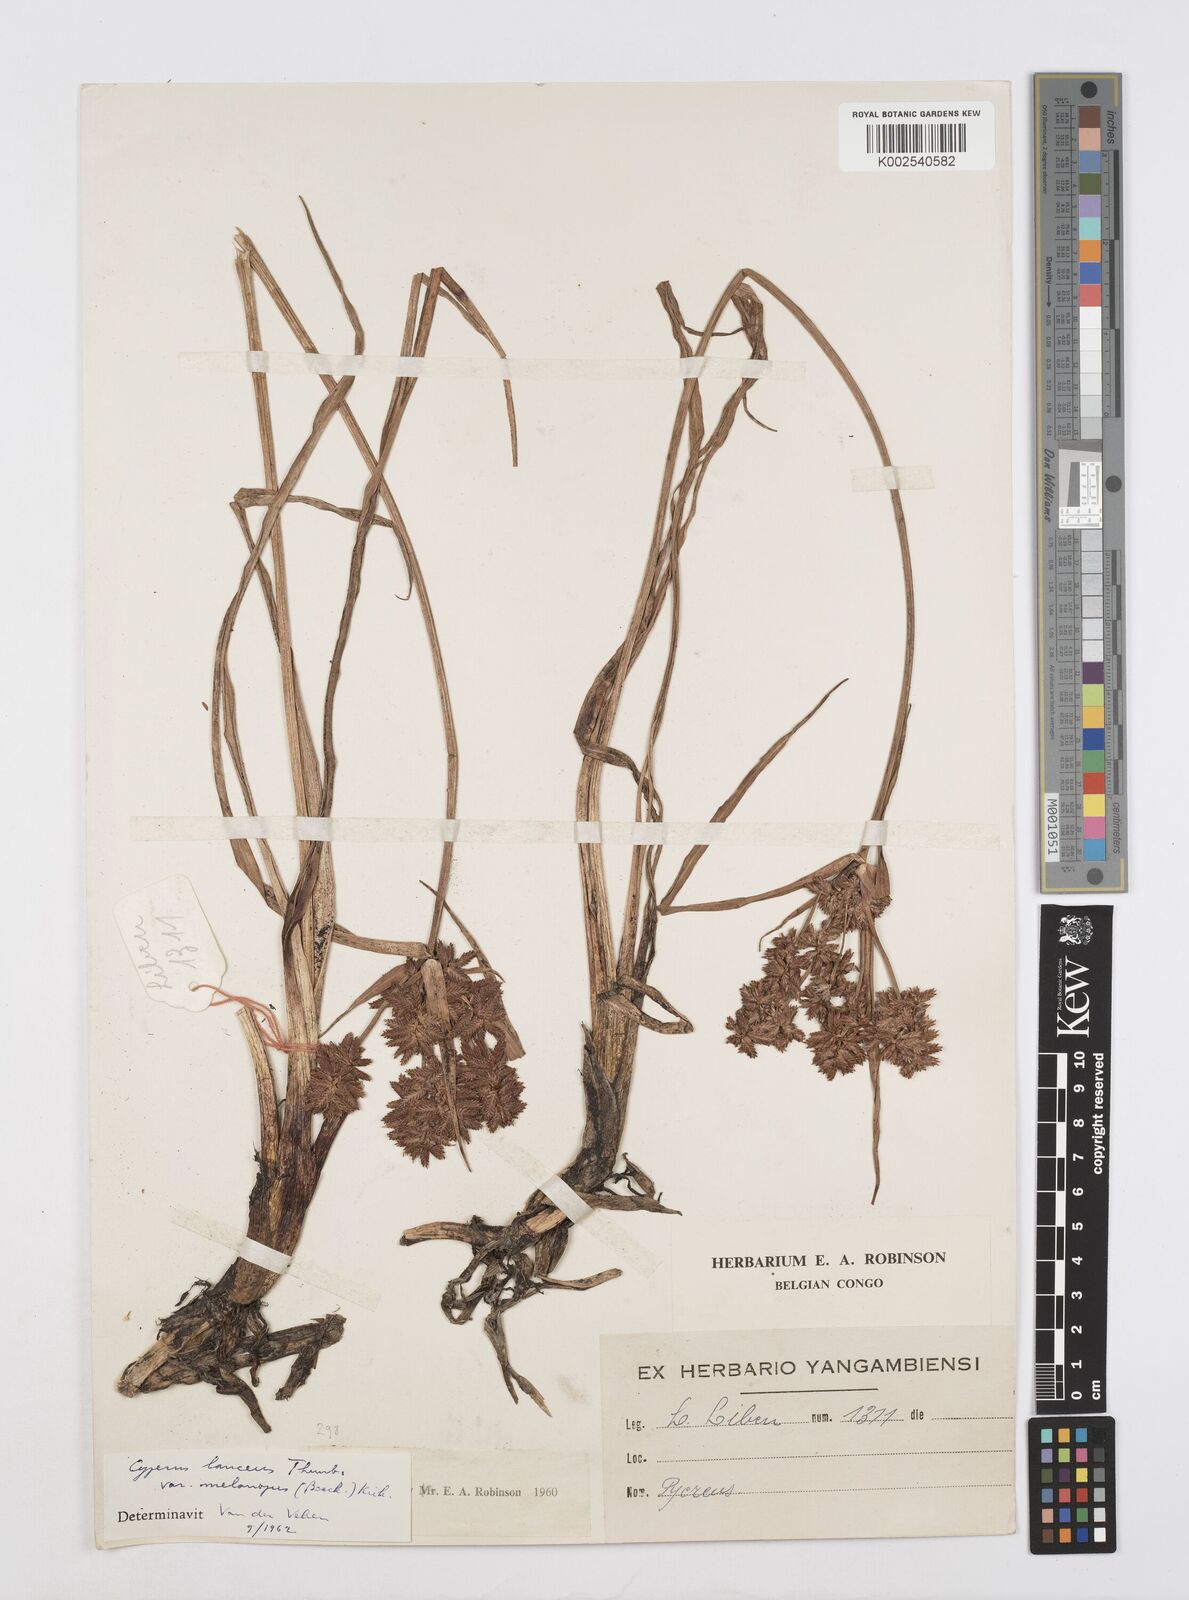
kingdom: Plantae
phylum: Tracheophyta
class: Liliopsida
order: Poales
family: Cyperaceae
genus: Cyperus
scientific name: Cyperus nitidus
